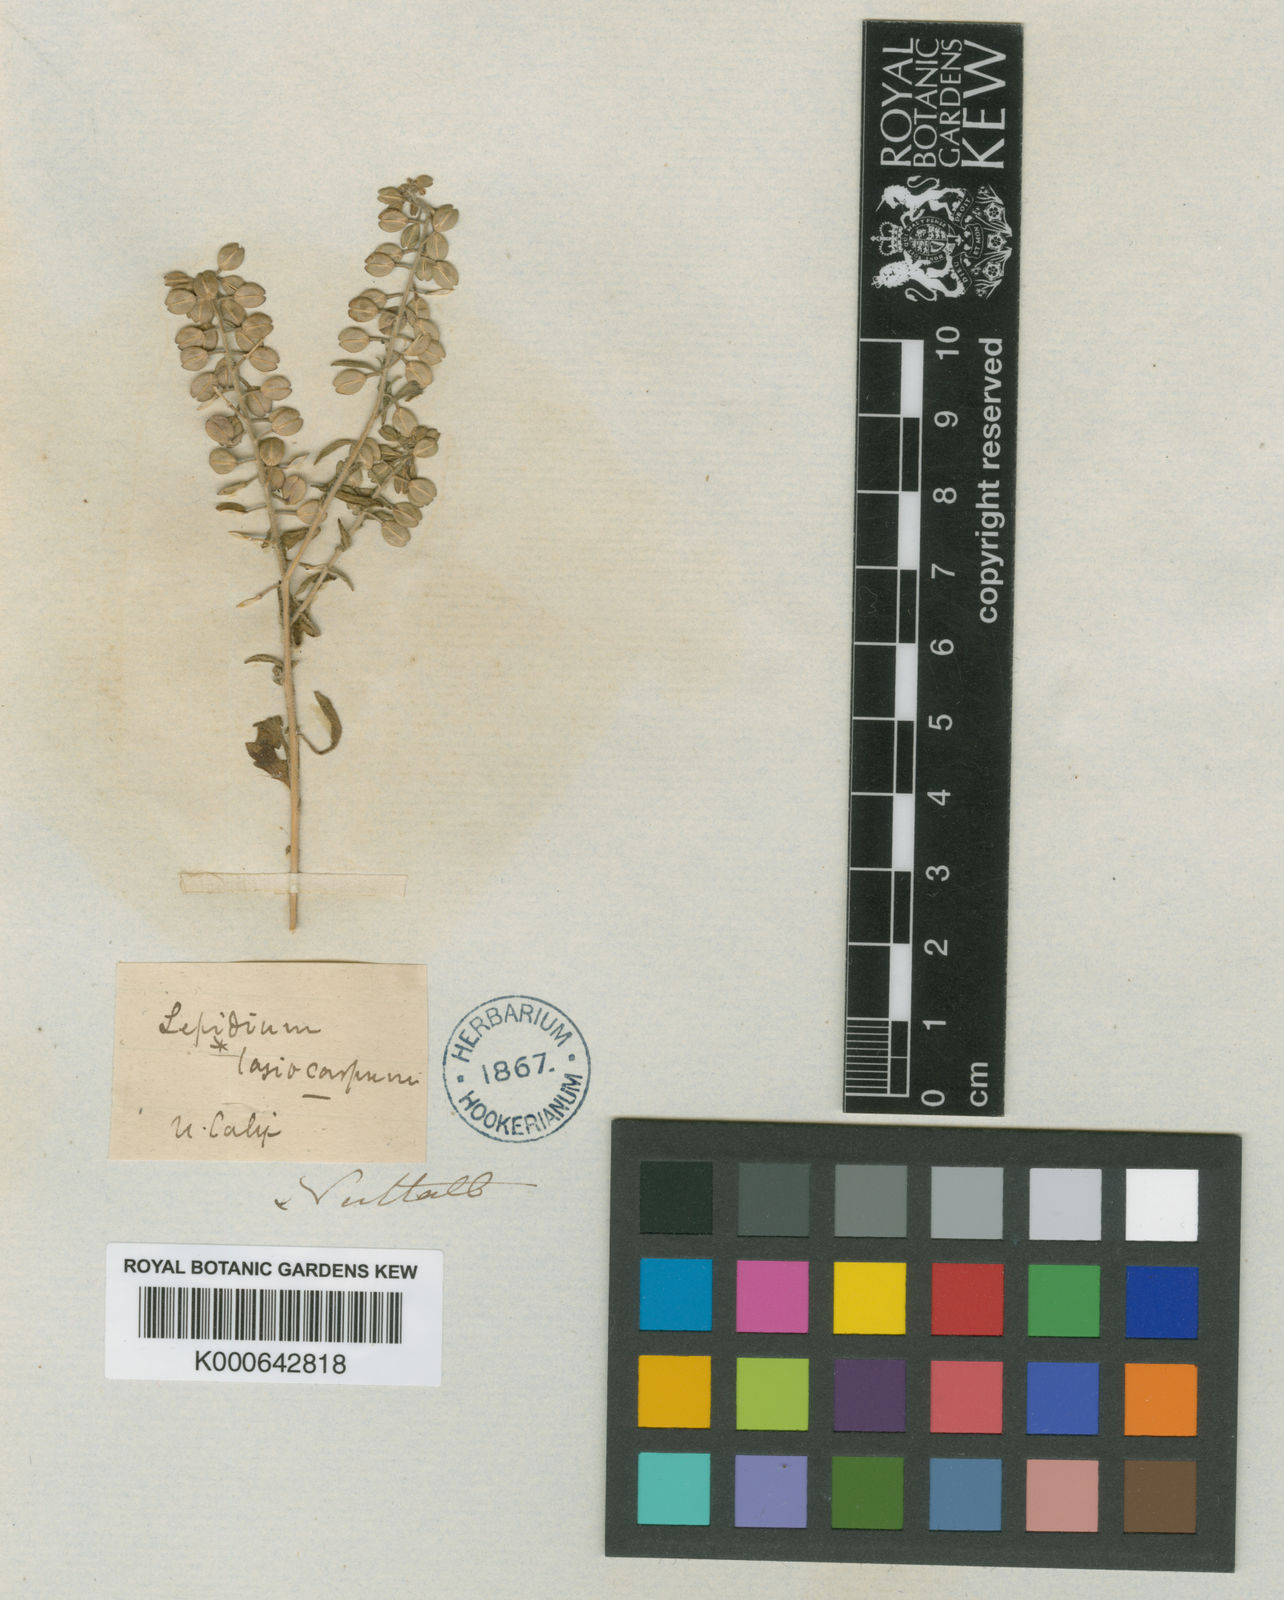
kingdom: Plantae
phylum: Tracheophyta
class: Magnoliopsida
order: Brassicales
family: Brassicaceae
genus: Lepidium
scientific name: Lepidium lasiocarpum
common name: Hairy-pod pepperwort
